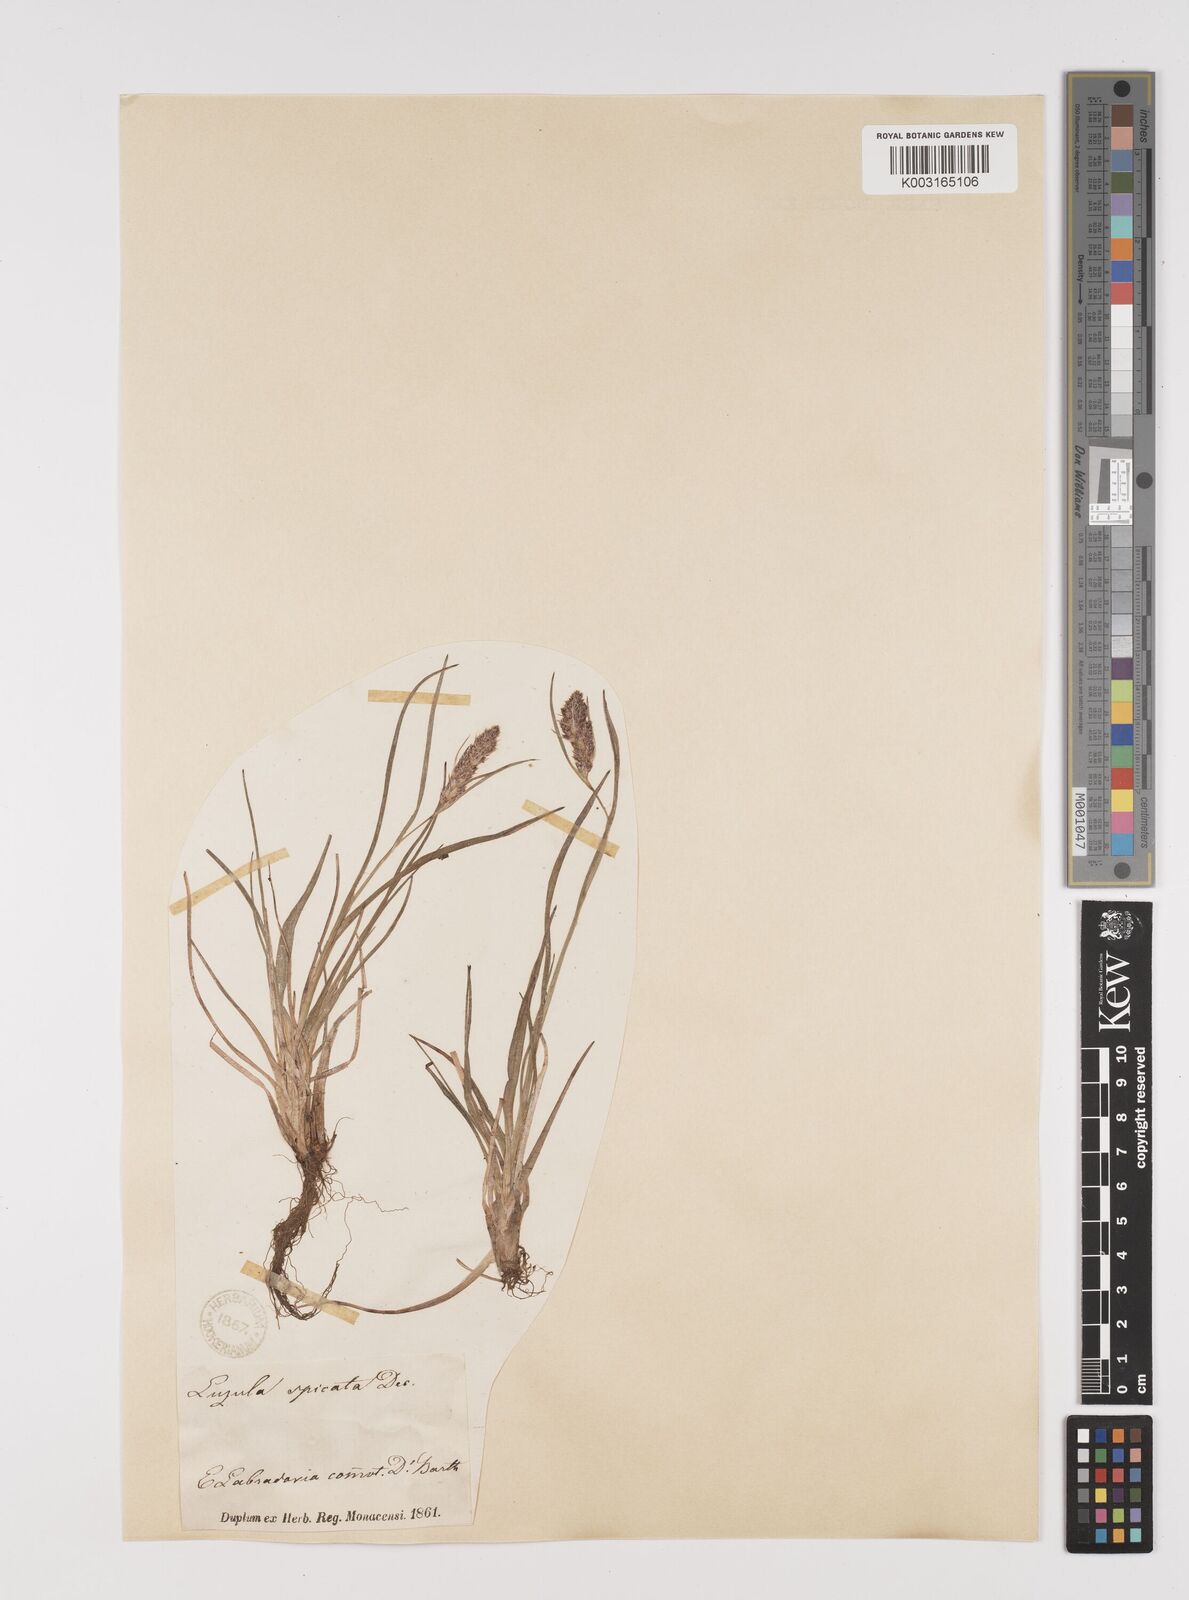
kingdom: Plantae
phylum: Tracheophyta
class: Liliopsida
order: Poales
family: Juncaceae
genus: Luzula
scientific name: Luzula spicata
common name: Spiked wood-rush
